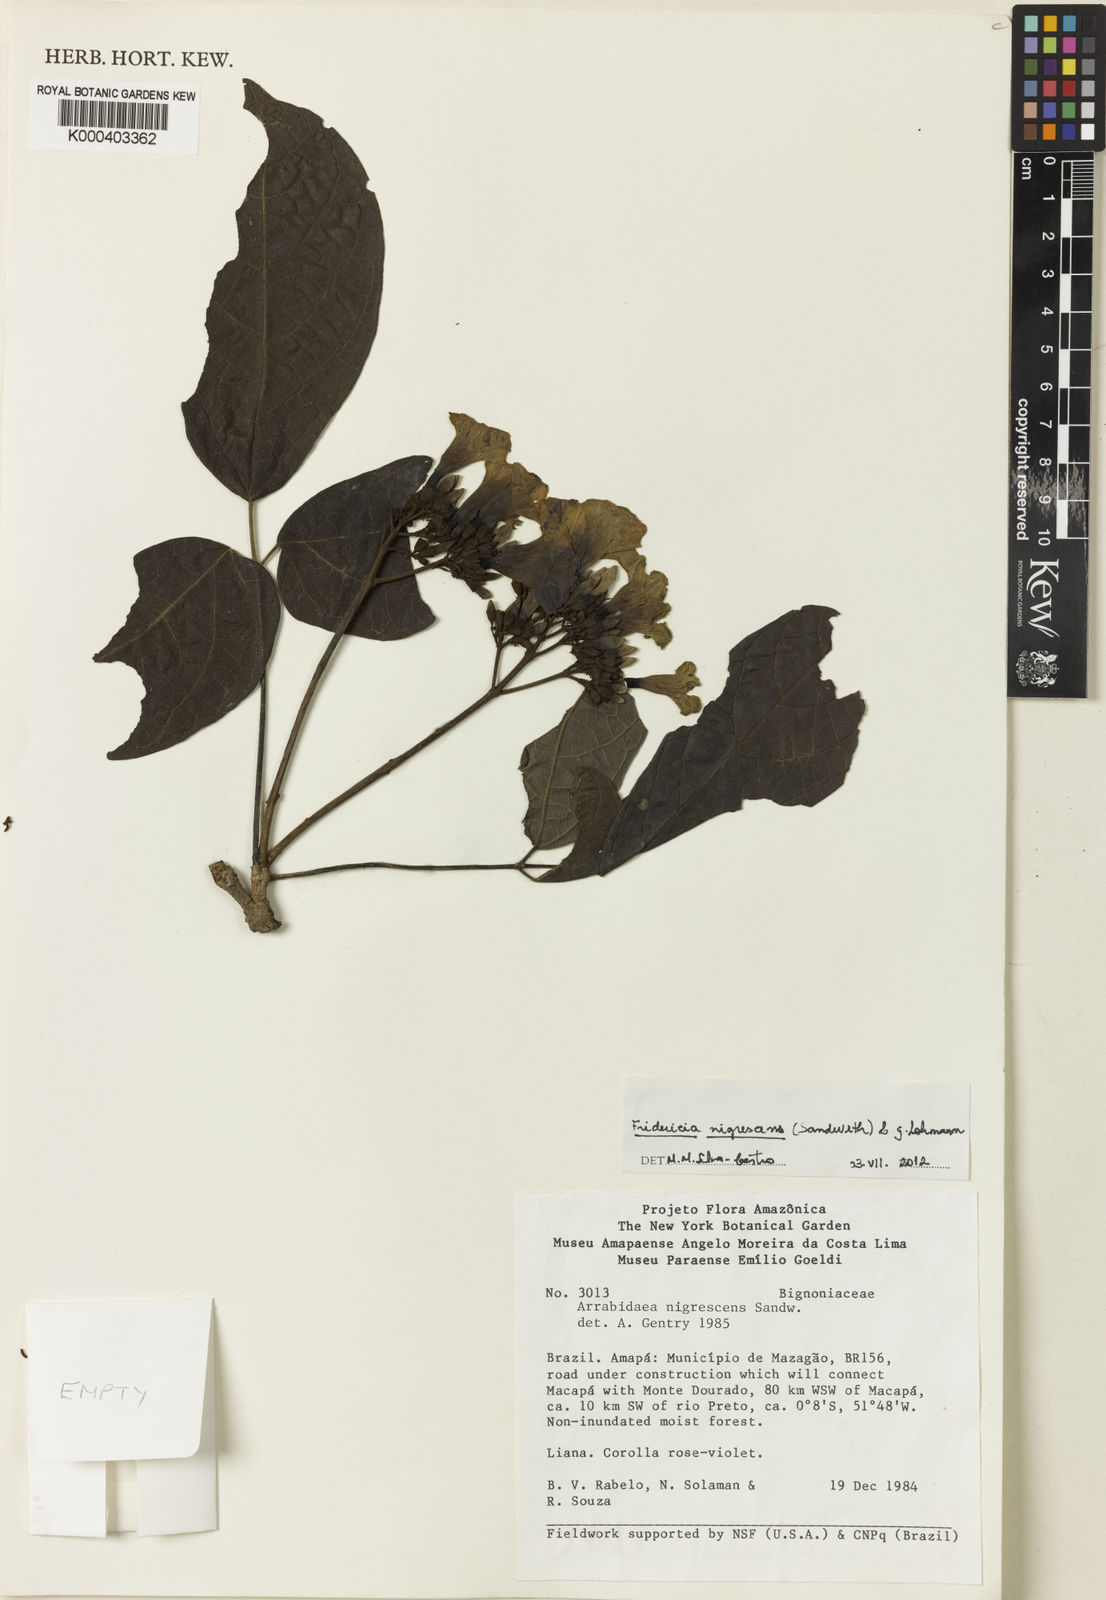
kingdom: Plantae
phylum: Tracheophyta
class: Magnoliopsida
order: Lamiales
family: Bignoniaceae
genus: Fridericia
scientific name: Fridericia nigrescens
